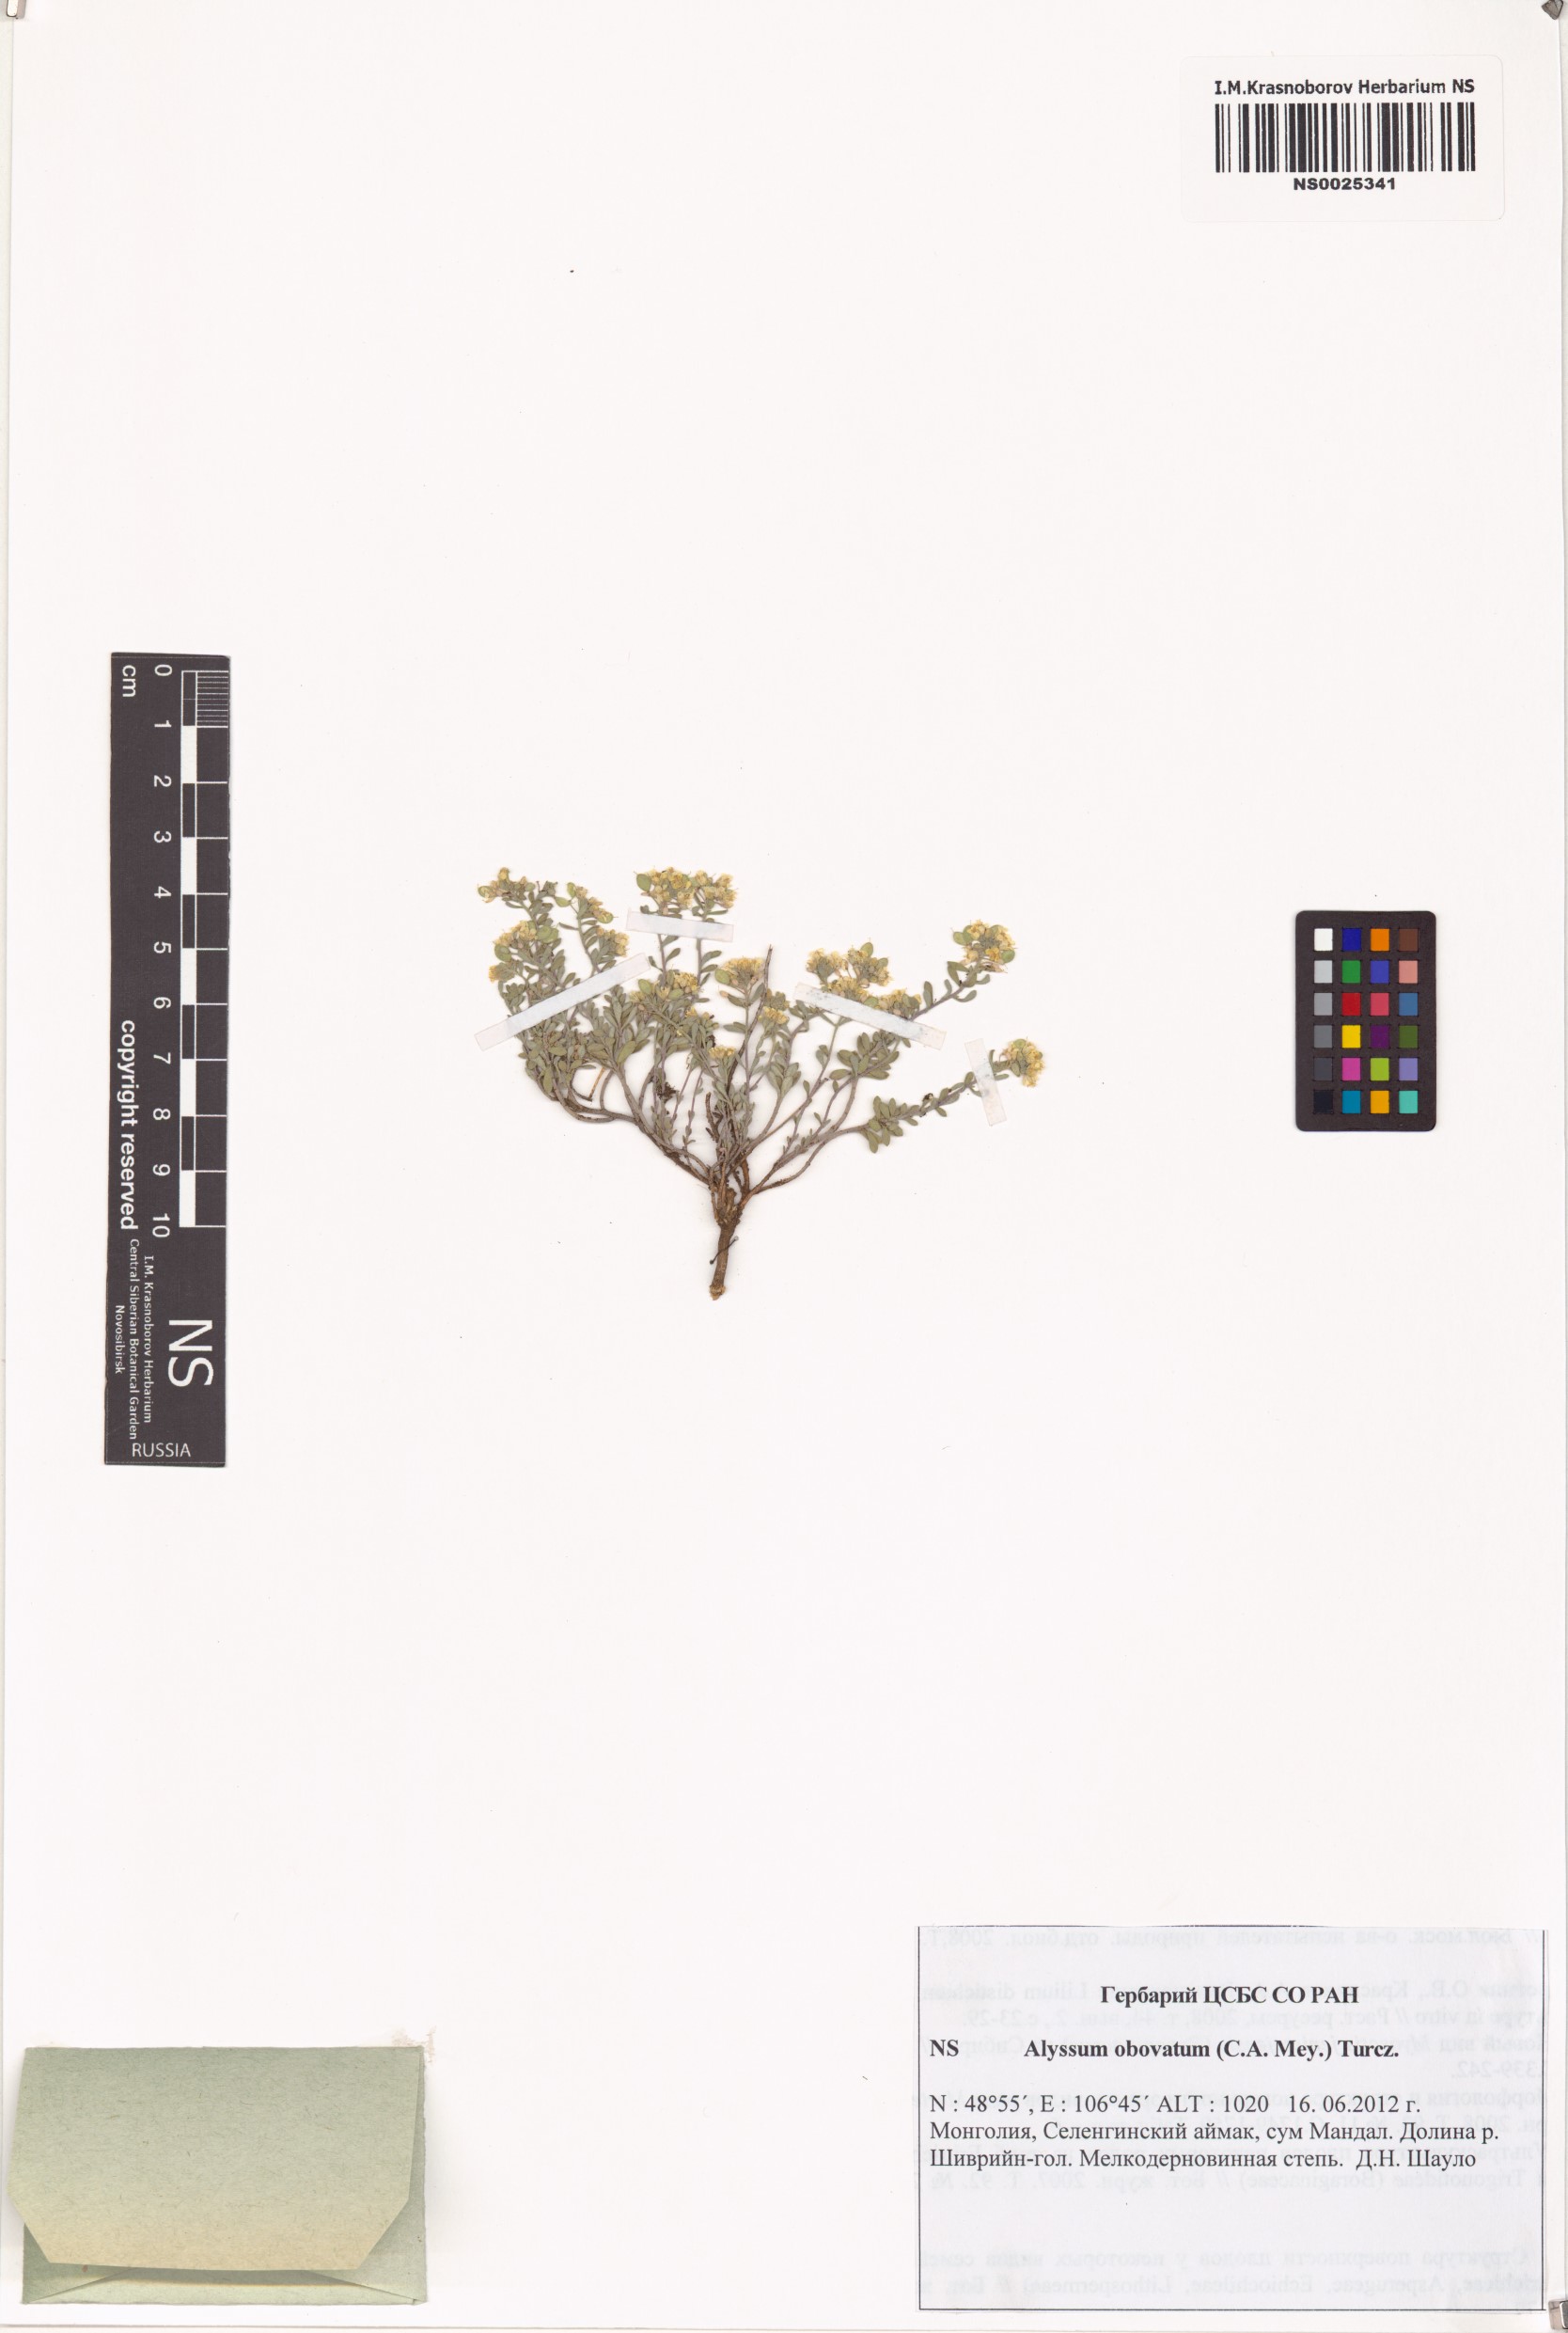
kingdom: Plantae
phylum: Tracheophyta
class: Magnoliopsida
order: Brassicales
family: Brassicaceae
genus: Odontarrhena
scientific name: Odontarrhena obovata
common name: American alyssum
